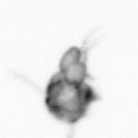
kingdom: Animalia
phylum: Arthropoda
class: Copepoda
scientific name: Copepoda
